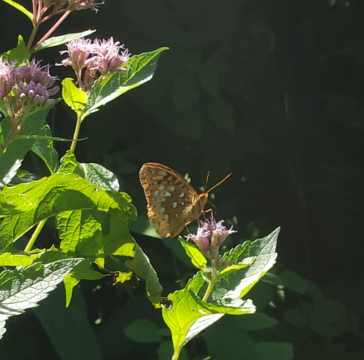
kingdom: Animalia
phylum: Arthropoda
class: Insecta
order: Lepidoptera
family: Nymphalidae
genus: Speyeria
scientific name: Speyeria cybele
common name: Great Spangled Fritillary
